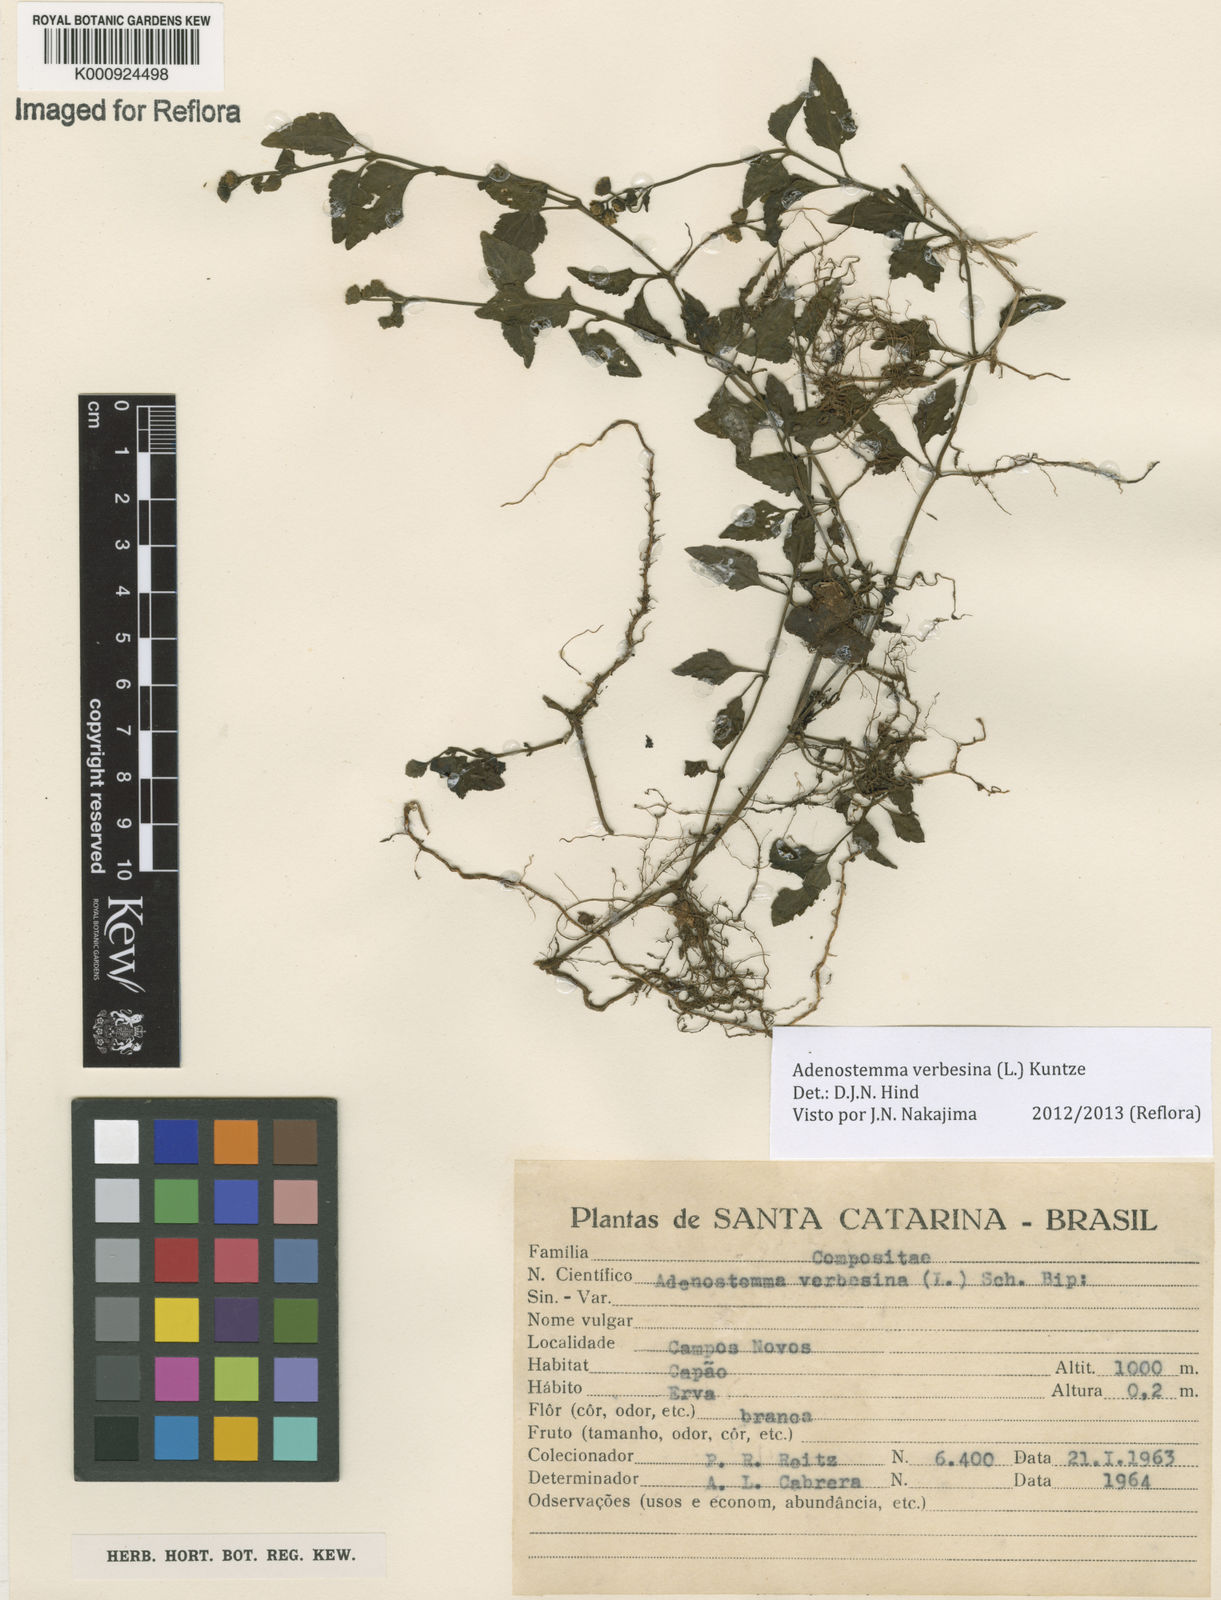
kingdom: Plantae
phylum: Tracheophyta
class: Magnoliopsida
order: Asterales
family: Asteraceae
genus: Adenostemma
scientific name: Adenostemma
